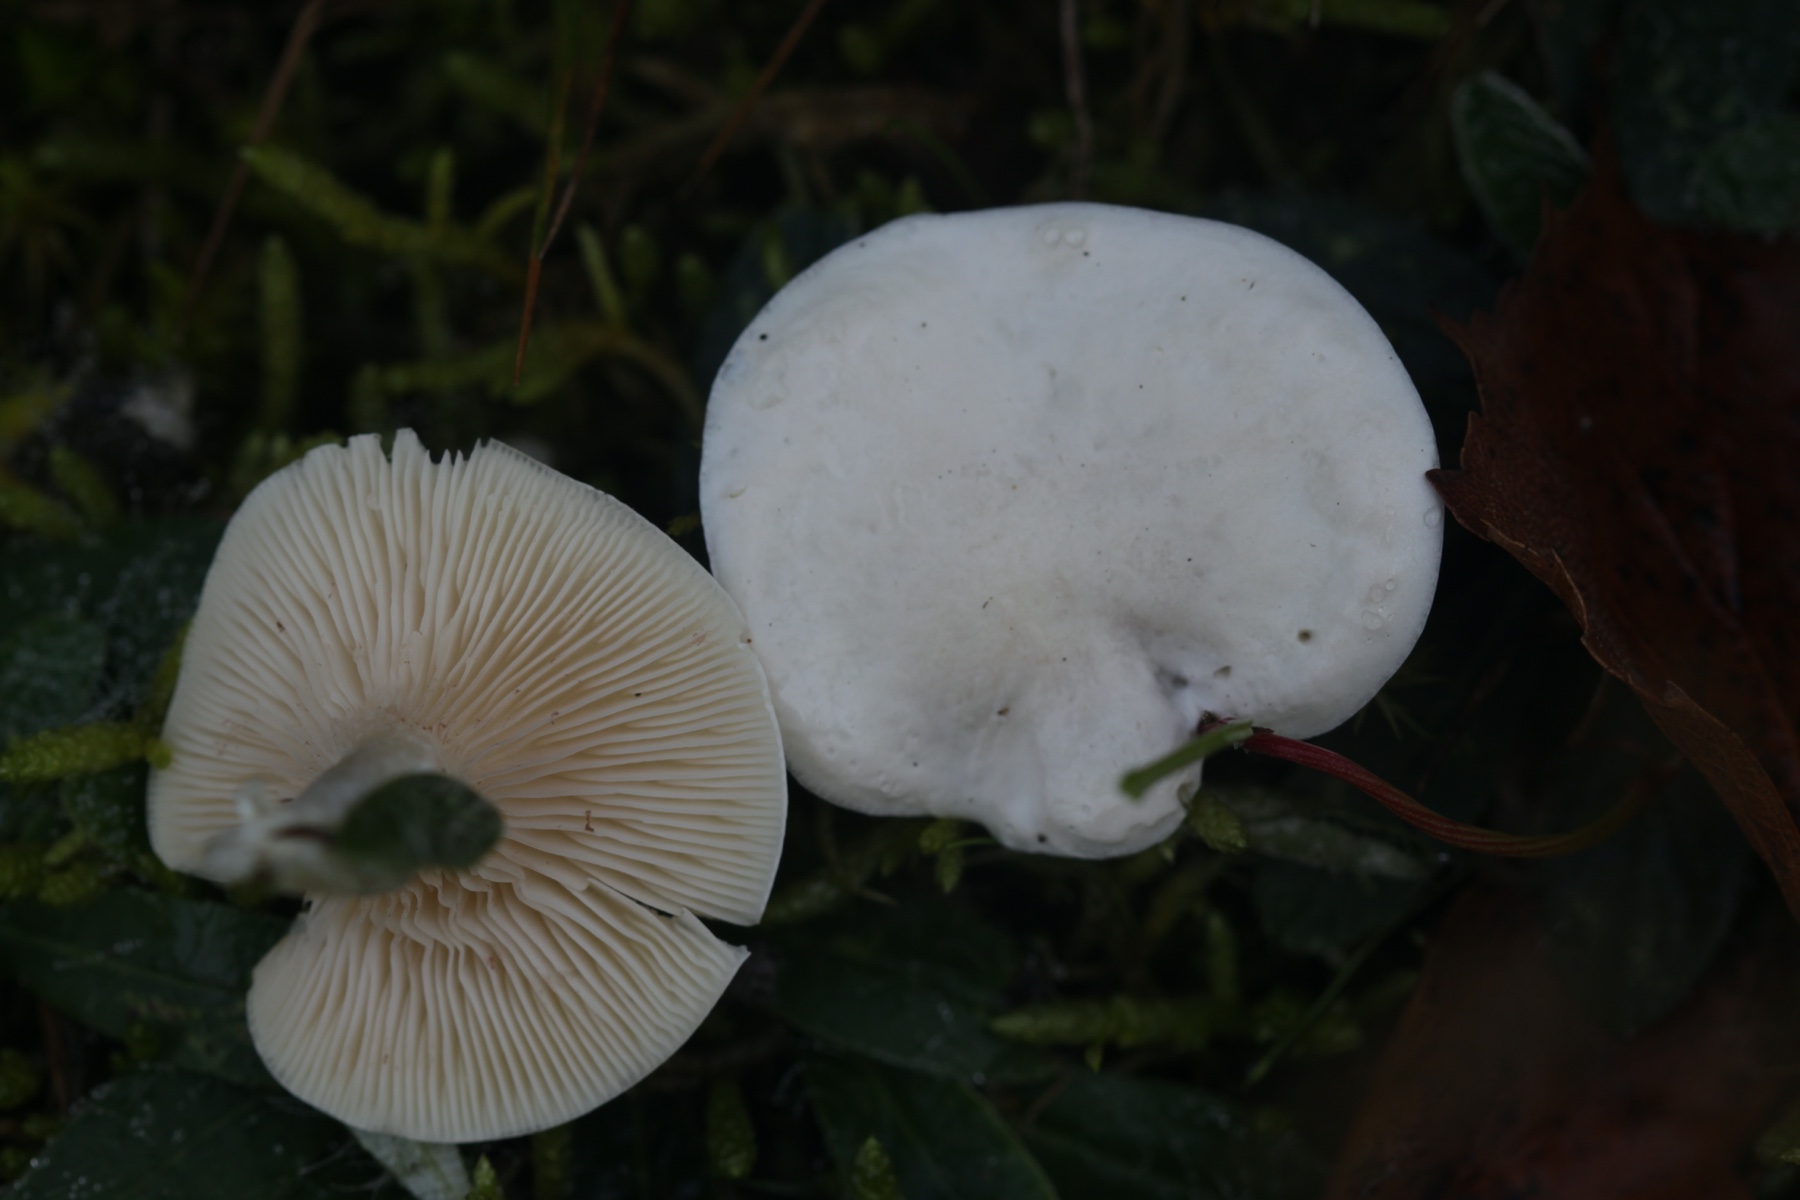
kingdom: Fungi
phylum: Basidiomycota
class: Agaricomycetes
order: Agaricales
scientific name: Agaricales
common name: champignonordenen
